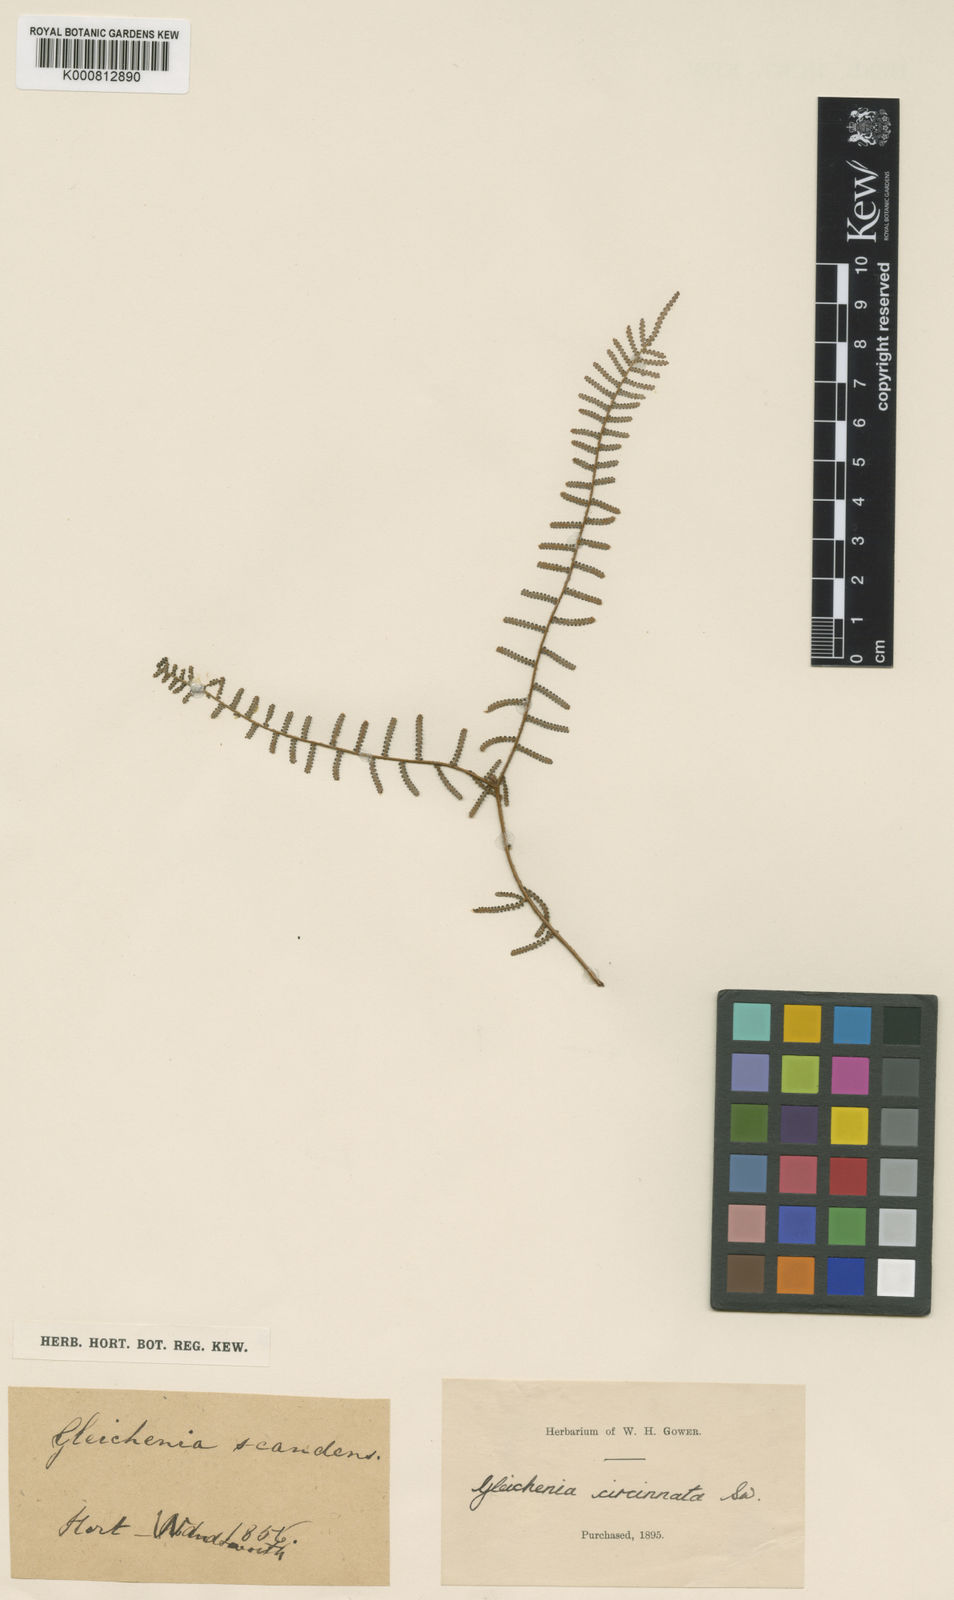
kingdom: Plantae
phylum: Tracheophyta
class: Polypodiopsida
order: Gleicheniales
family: Gleicheniaceae
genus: Gleichenia
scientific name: Gleichenia dicarpa
